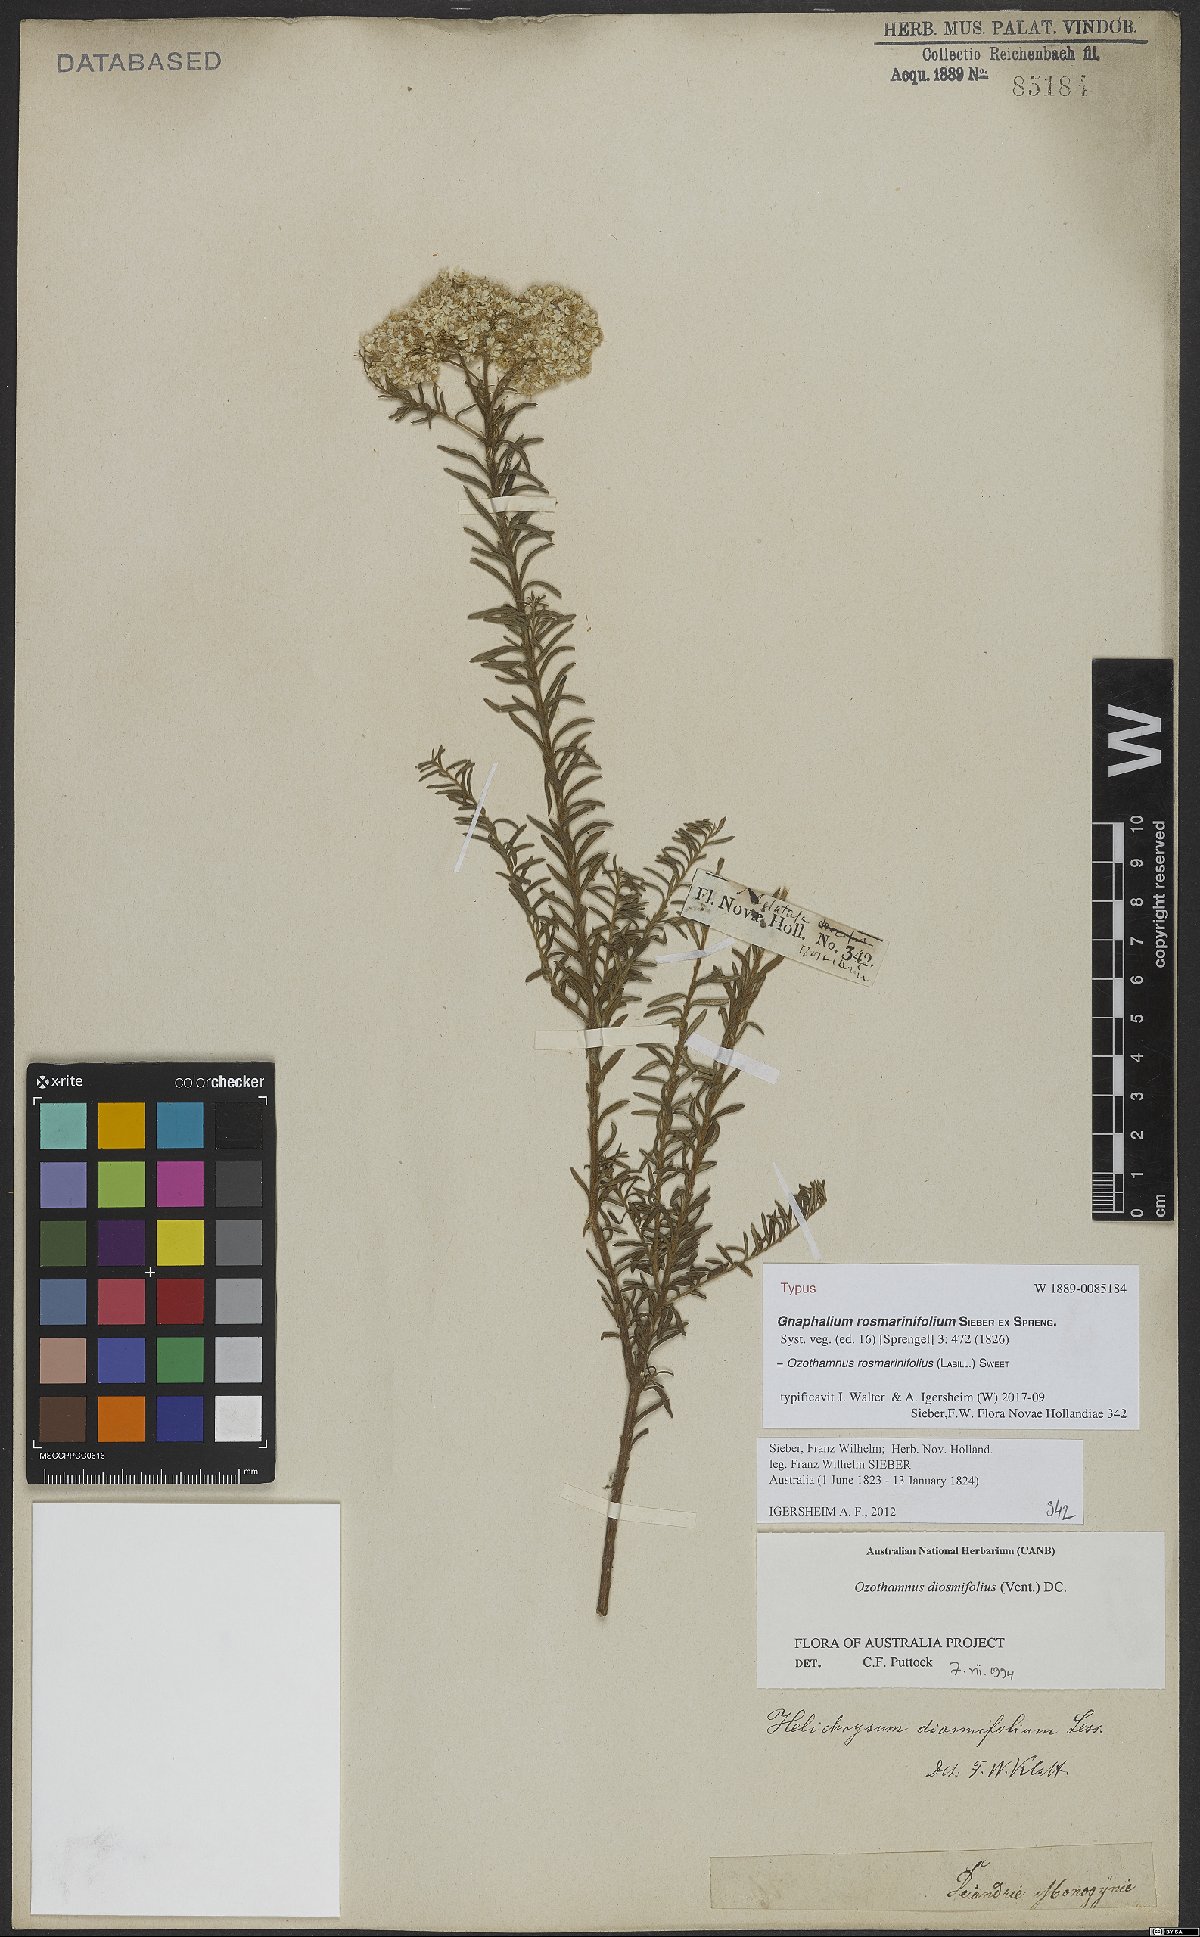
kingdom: Plantae
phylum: Tracheophyta
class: Magnoliopsida
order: Asterales
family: Asteraceae
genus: Ozothamnus
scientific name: Ozothamnus rosmarinifolius
